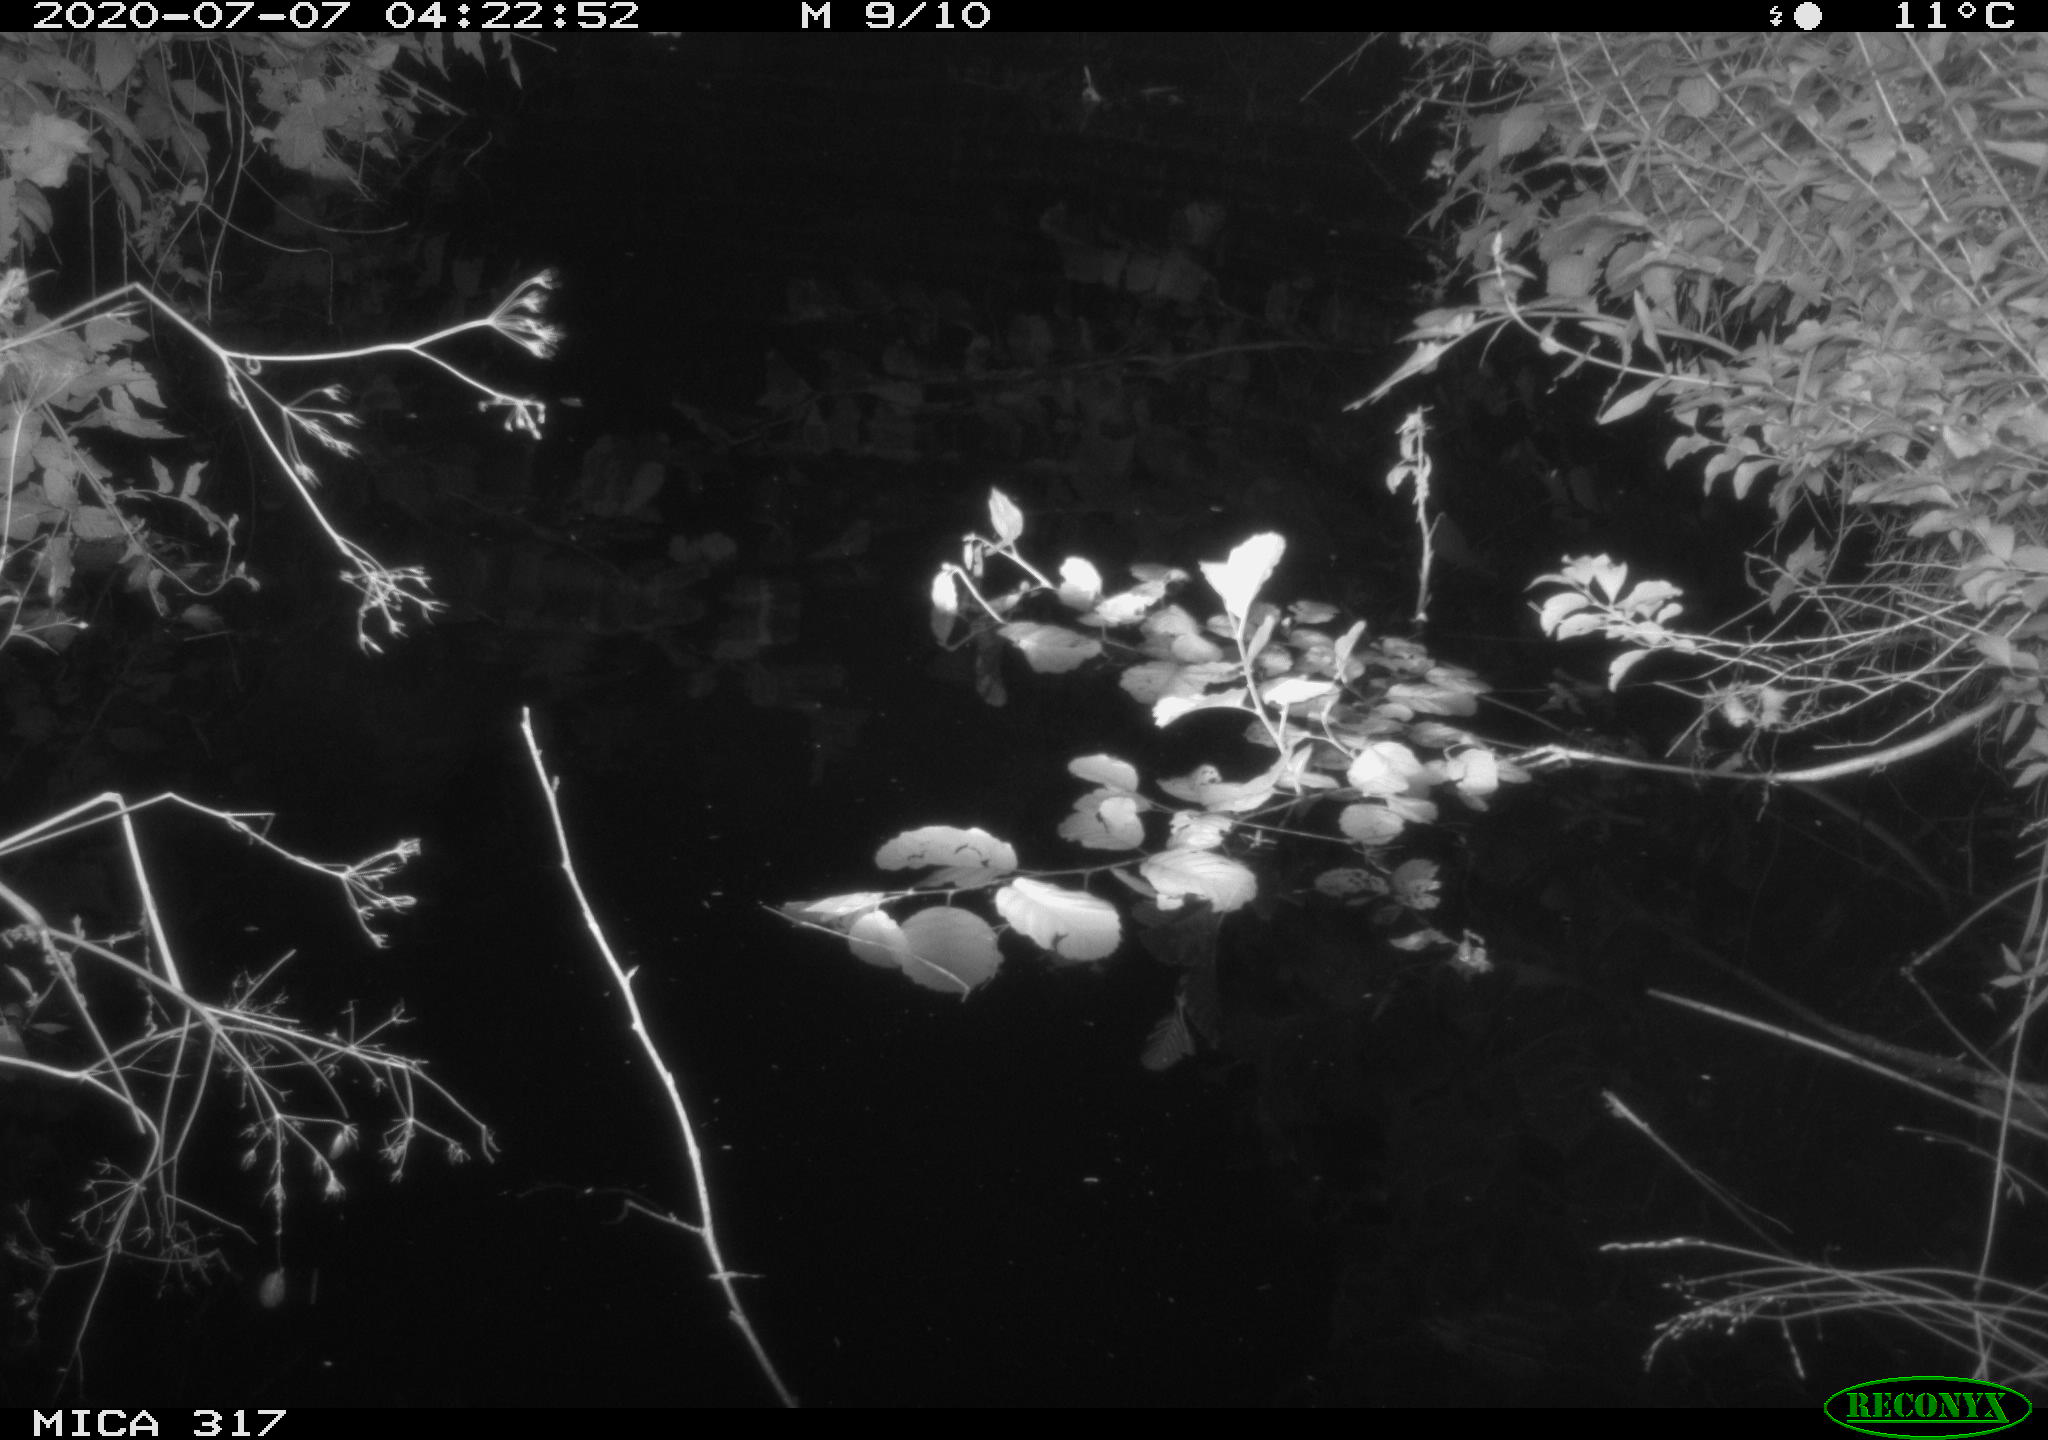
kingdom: Animalia
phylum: Chordata
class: Aves
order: Anseriformes
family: Anatidae
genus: Anas
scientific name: Anas platyrhynchos
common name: Mallard
